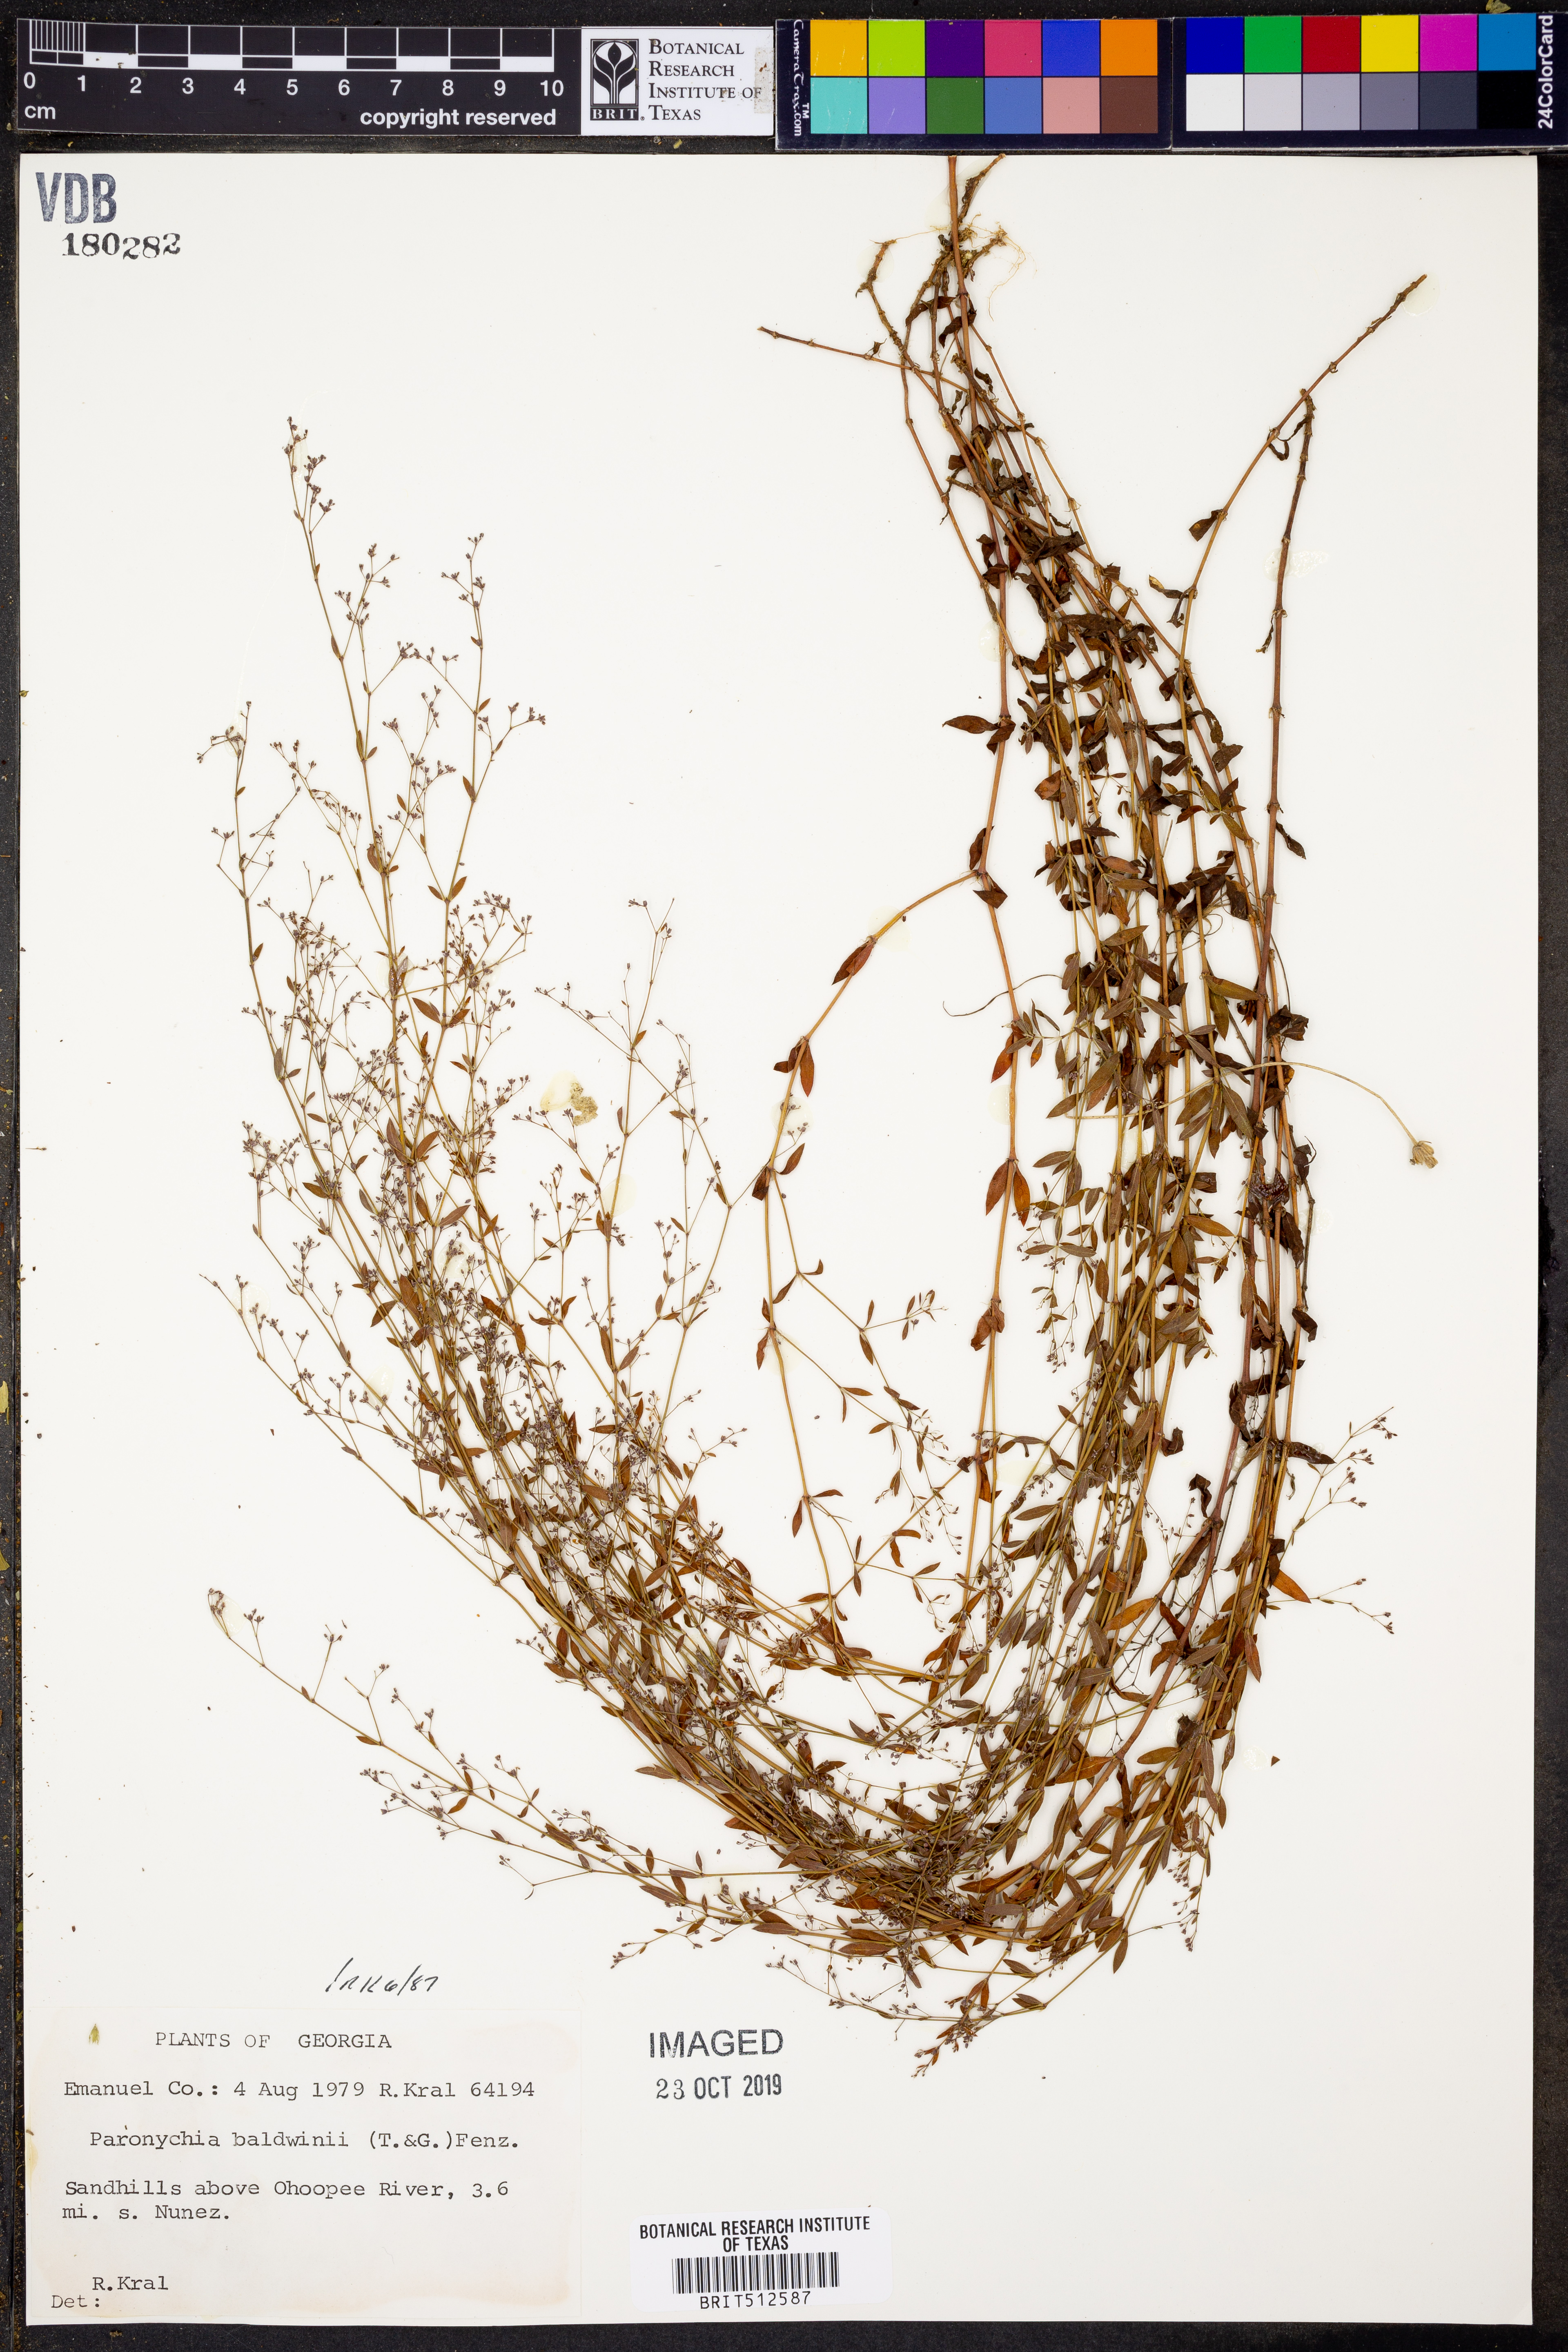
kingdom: Plantae
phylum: Tracheophyta
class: Magnoliopsida
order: Caryophyllales
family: Caryophyllaceae
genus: Paronychia
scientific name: Paronychia baldwinii
